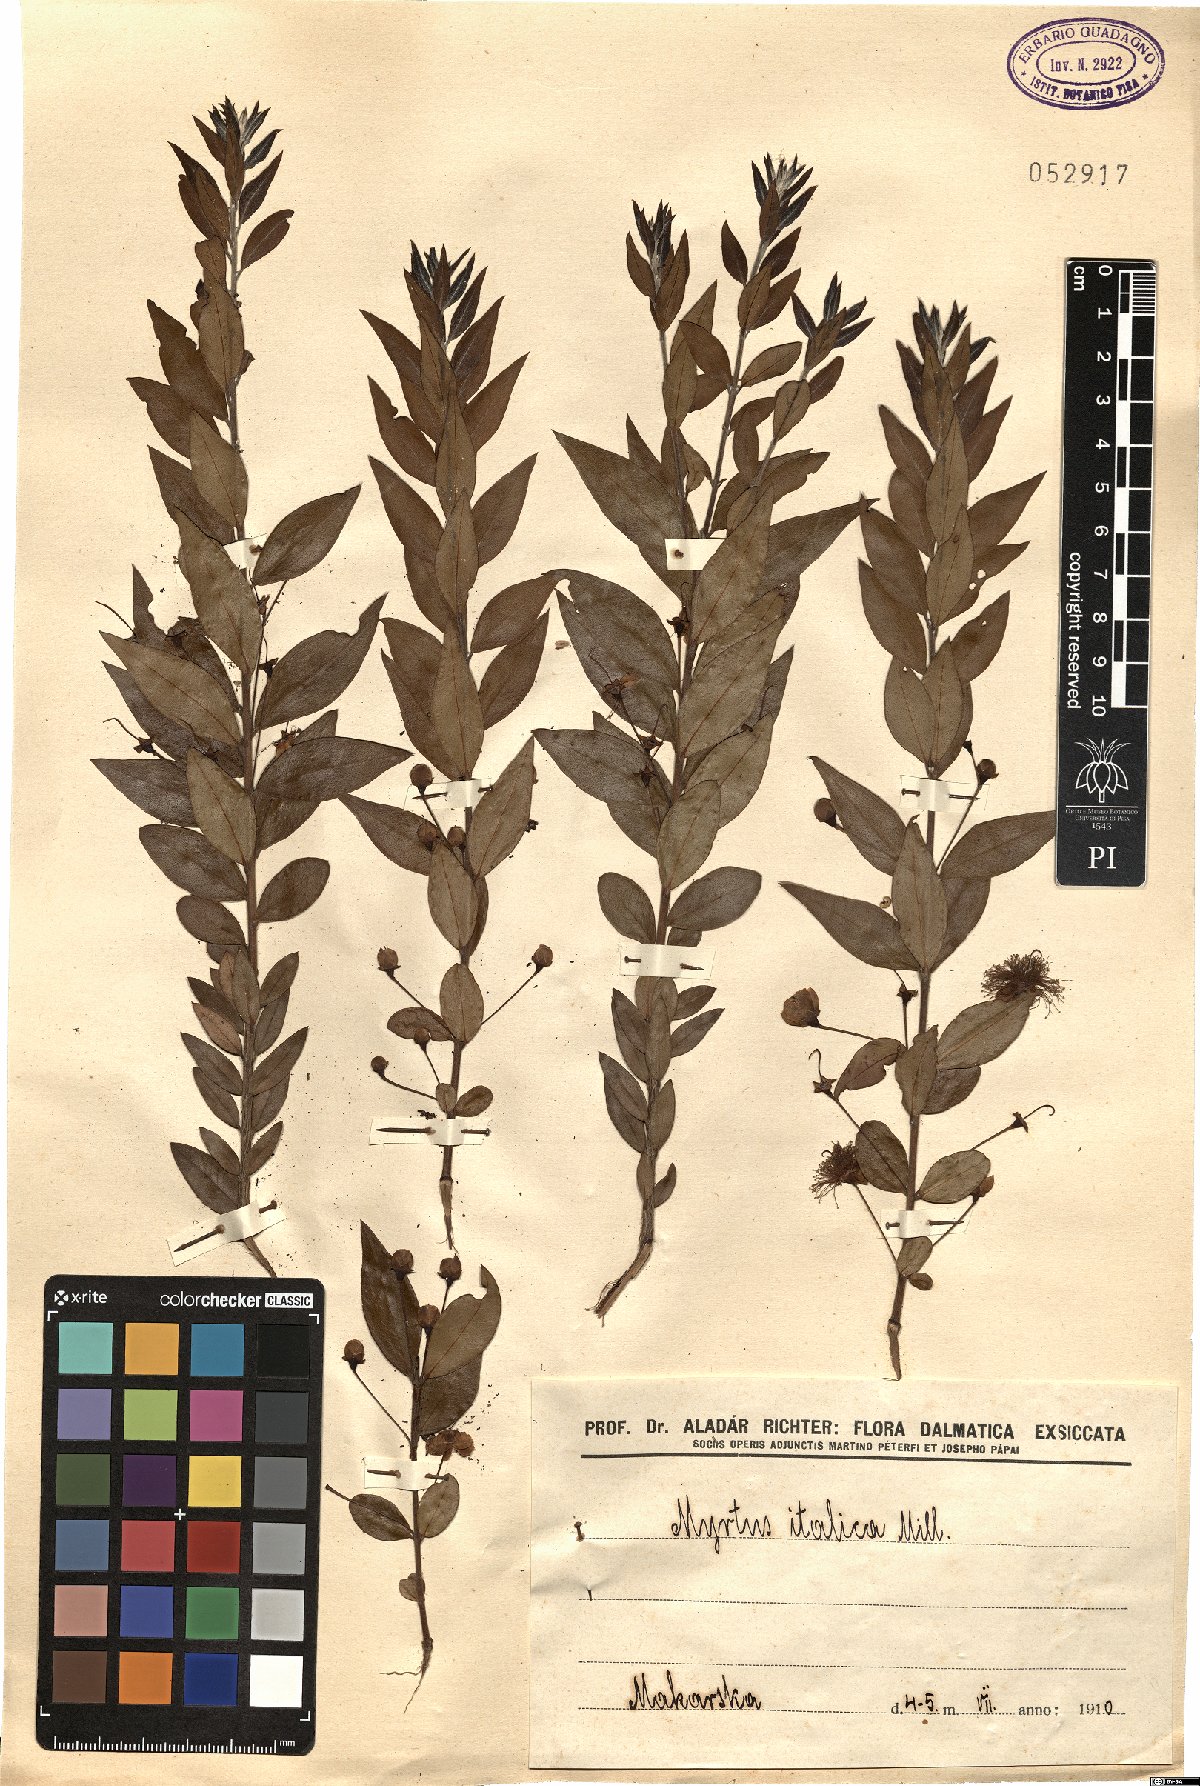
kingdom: Plantae
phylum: Tracheophyta
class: Magnoliopsida
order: Myrtales
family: Myrtaceae
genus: Myrtus
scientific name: Myrtus communis
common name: Myrtle
